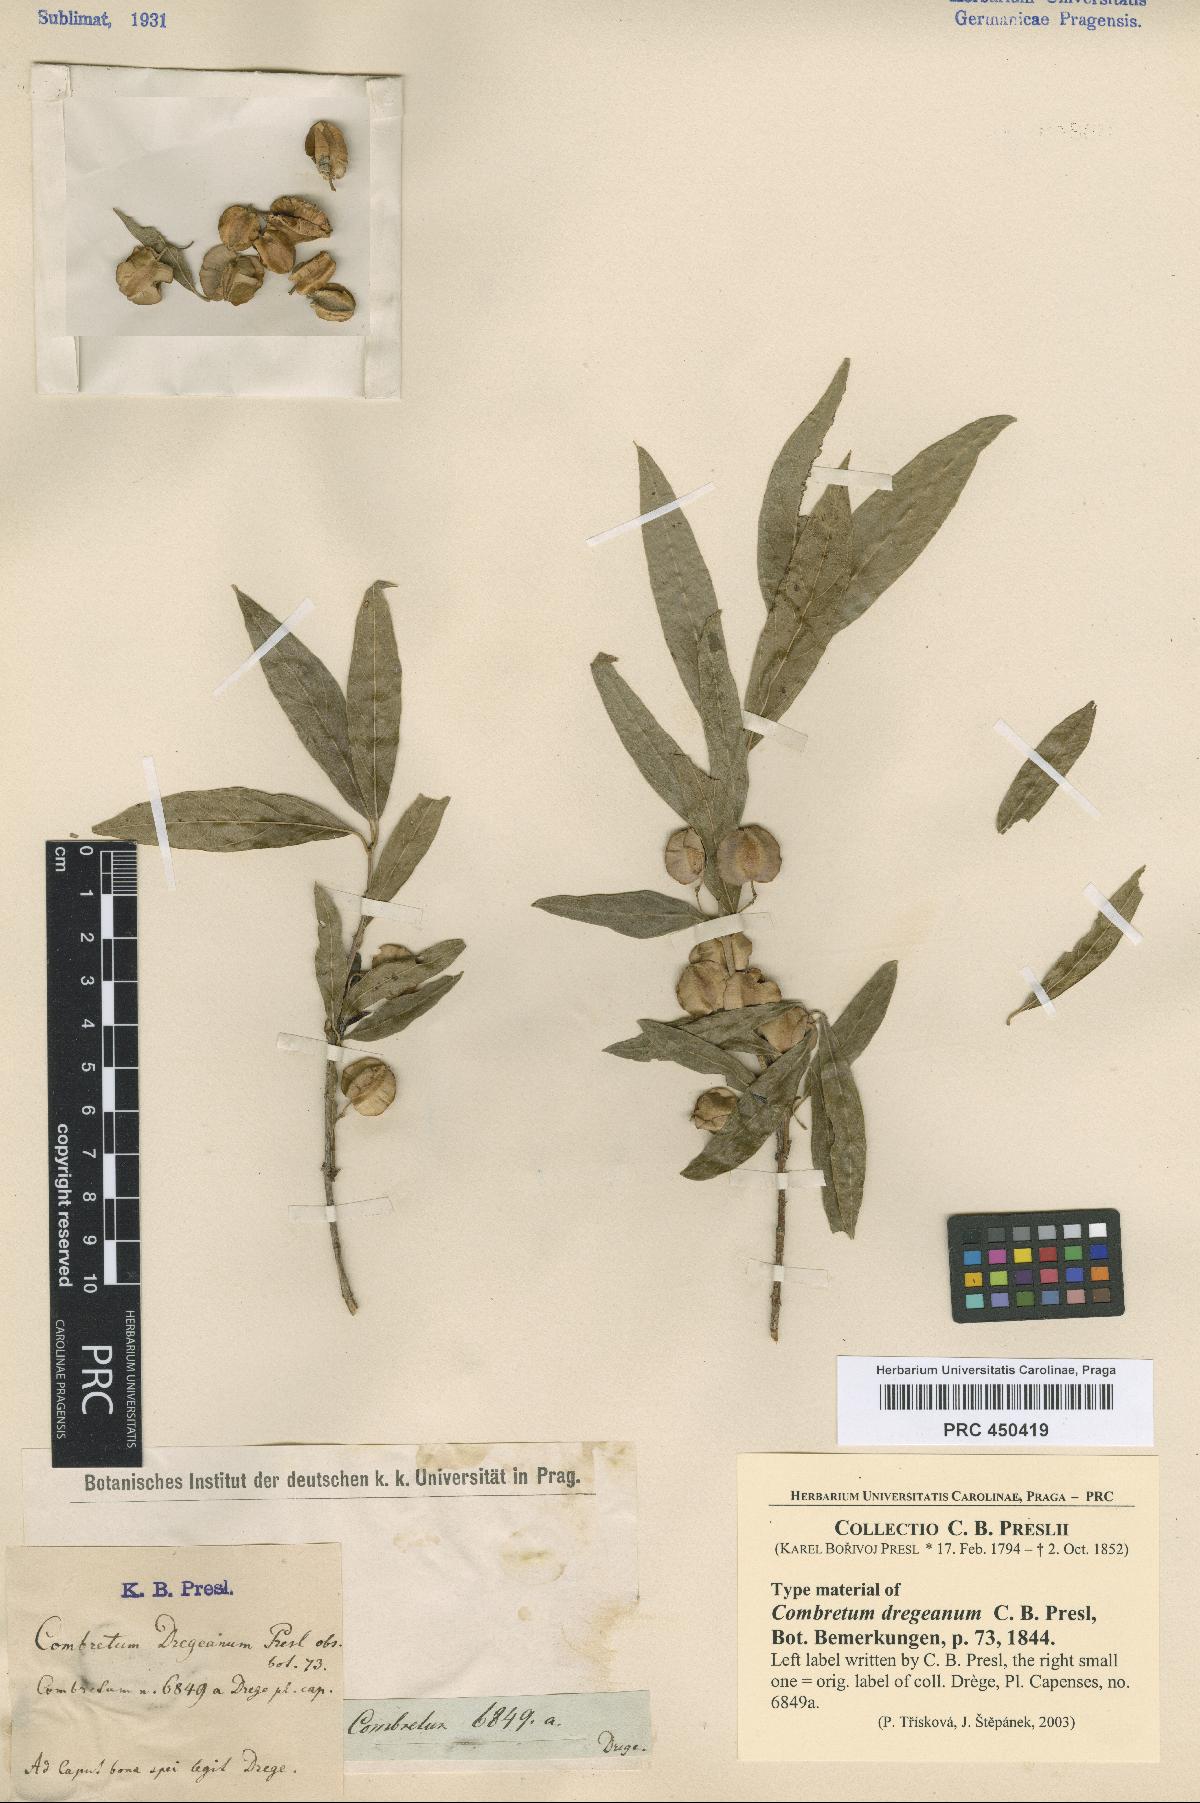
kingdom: Plantae
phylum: Tracheophyta
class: Magnoliopsida
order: Myrtales
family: Combretaceae
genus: Combretum
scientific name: Combretum
